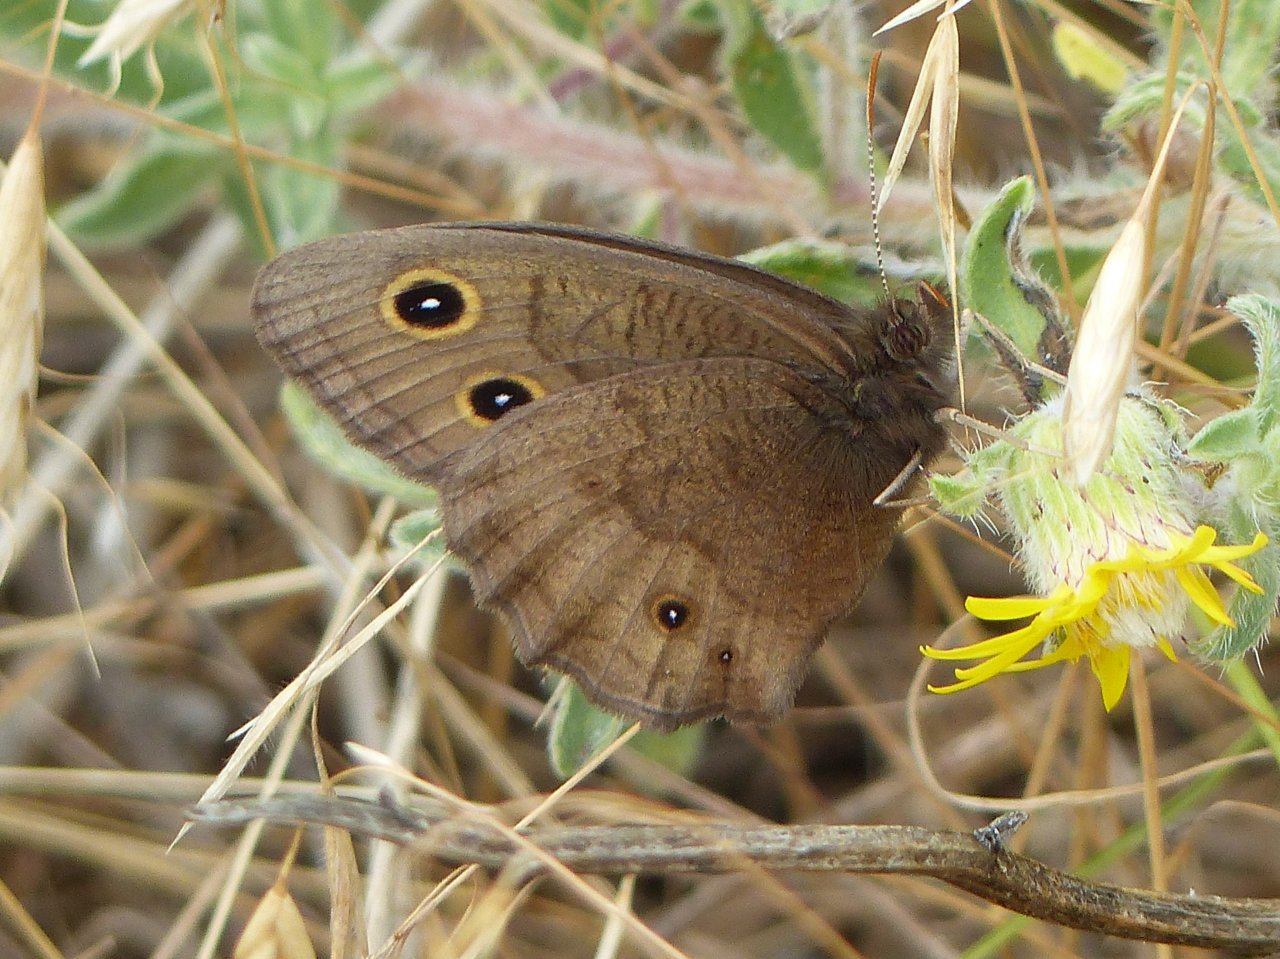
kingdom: Animalia
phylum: Arthropoda
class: Insecta
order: Lepidoptera
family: Nymphalidae
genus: Cercyonis
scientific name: Cercyonis pegala
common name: Common Wood-Nymph
